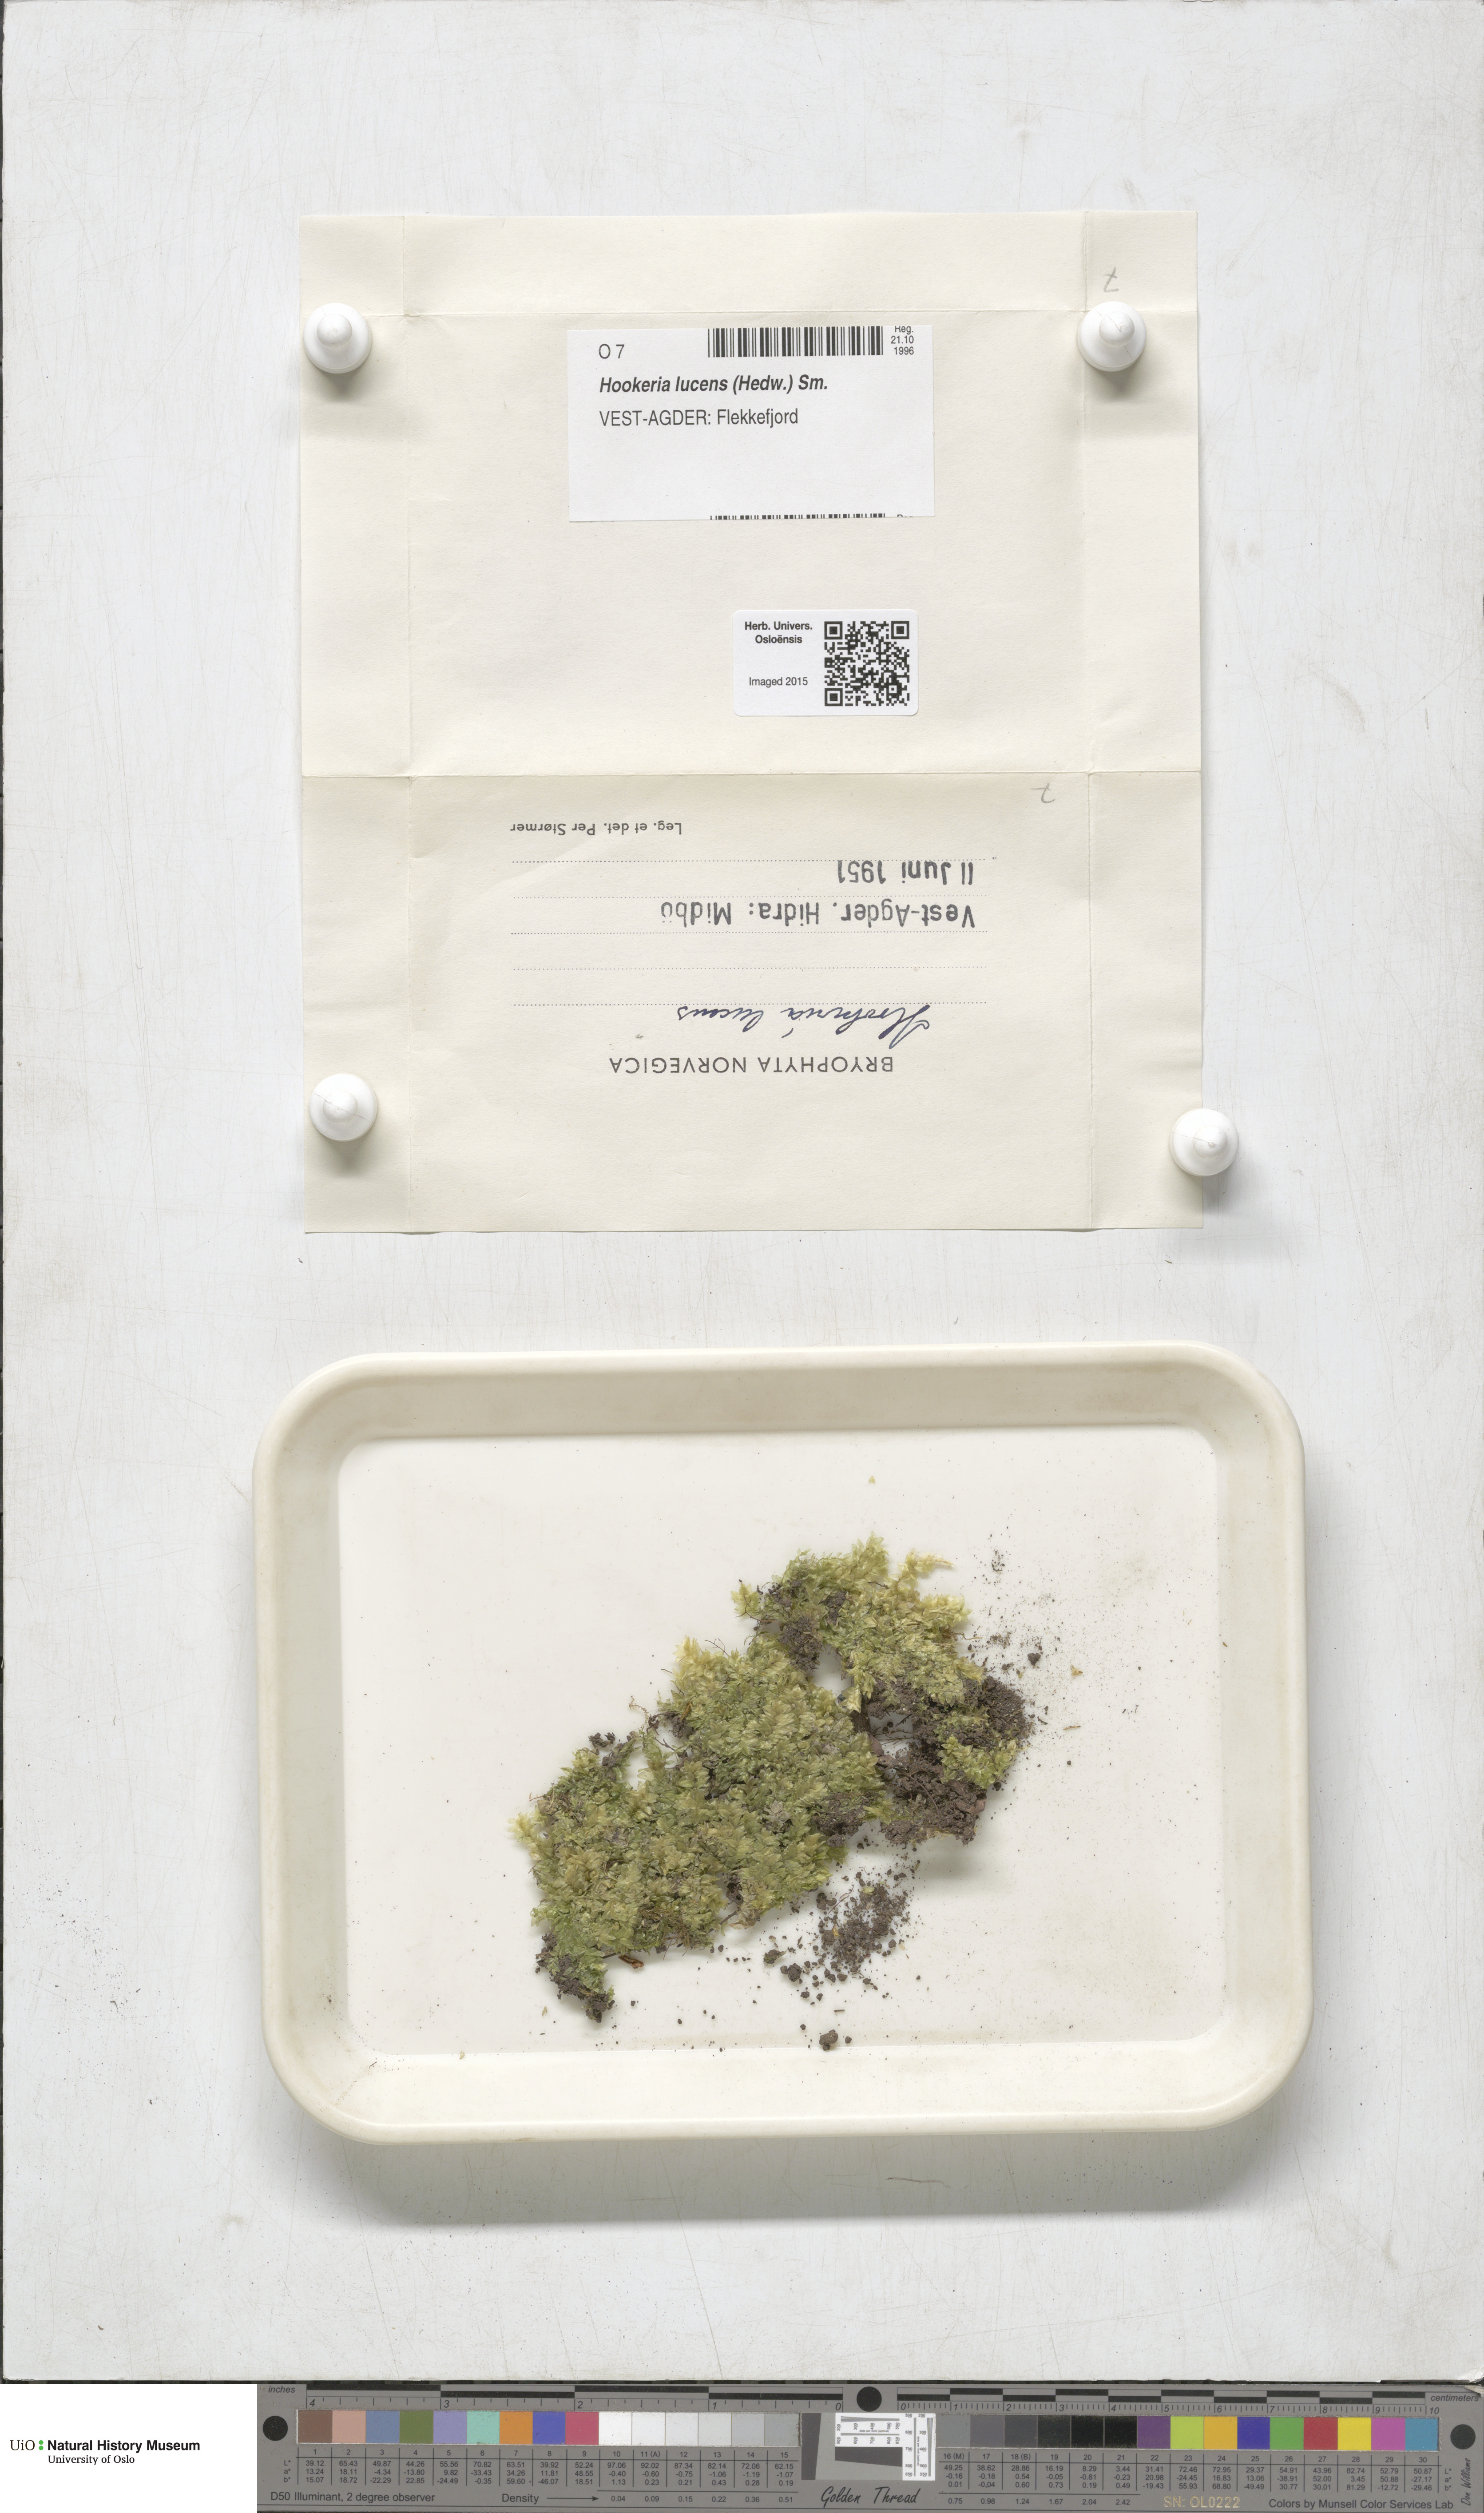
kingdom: Plantae
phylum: Bryophyta
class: Bryopsida
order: Hookeriales
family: Hookeriaceae
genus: Hookeria
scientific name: Hookeria lucens
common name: Shining hookeria
